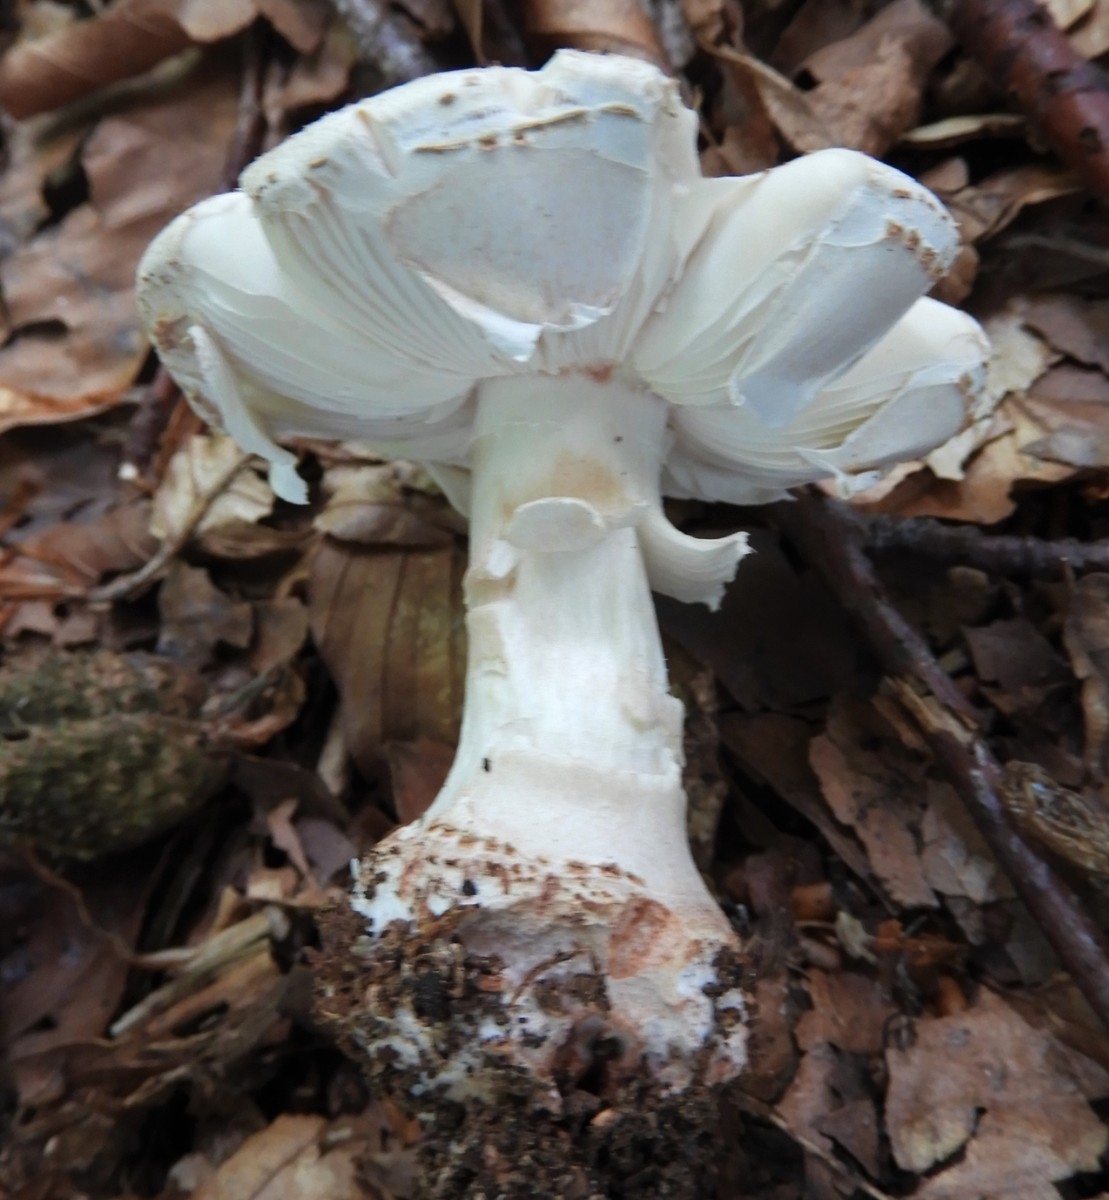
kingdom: Fungi
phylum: Basidiomycota
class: Agaricomycetes
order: Agaricales
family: Amanitaceae
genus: Amanita
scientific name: Amanita rubescens
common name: rødmende fluesvamp
